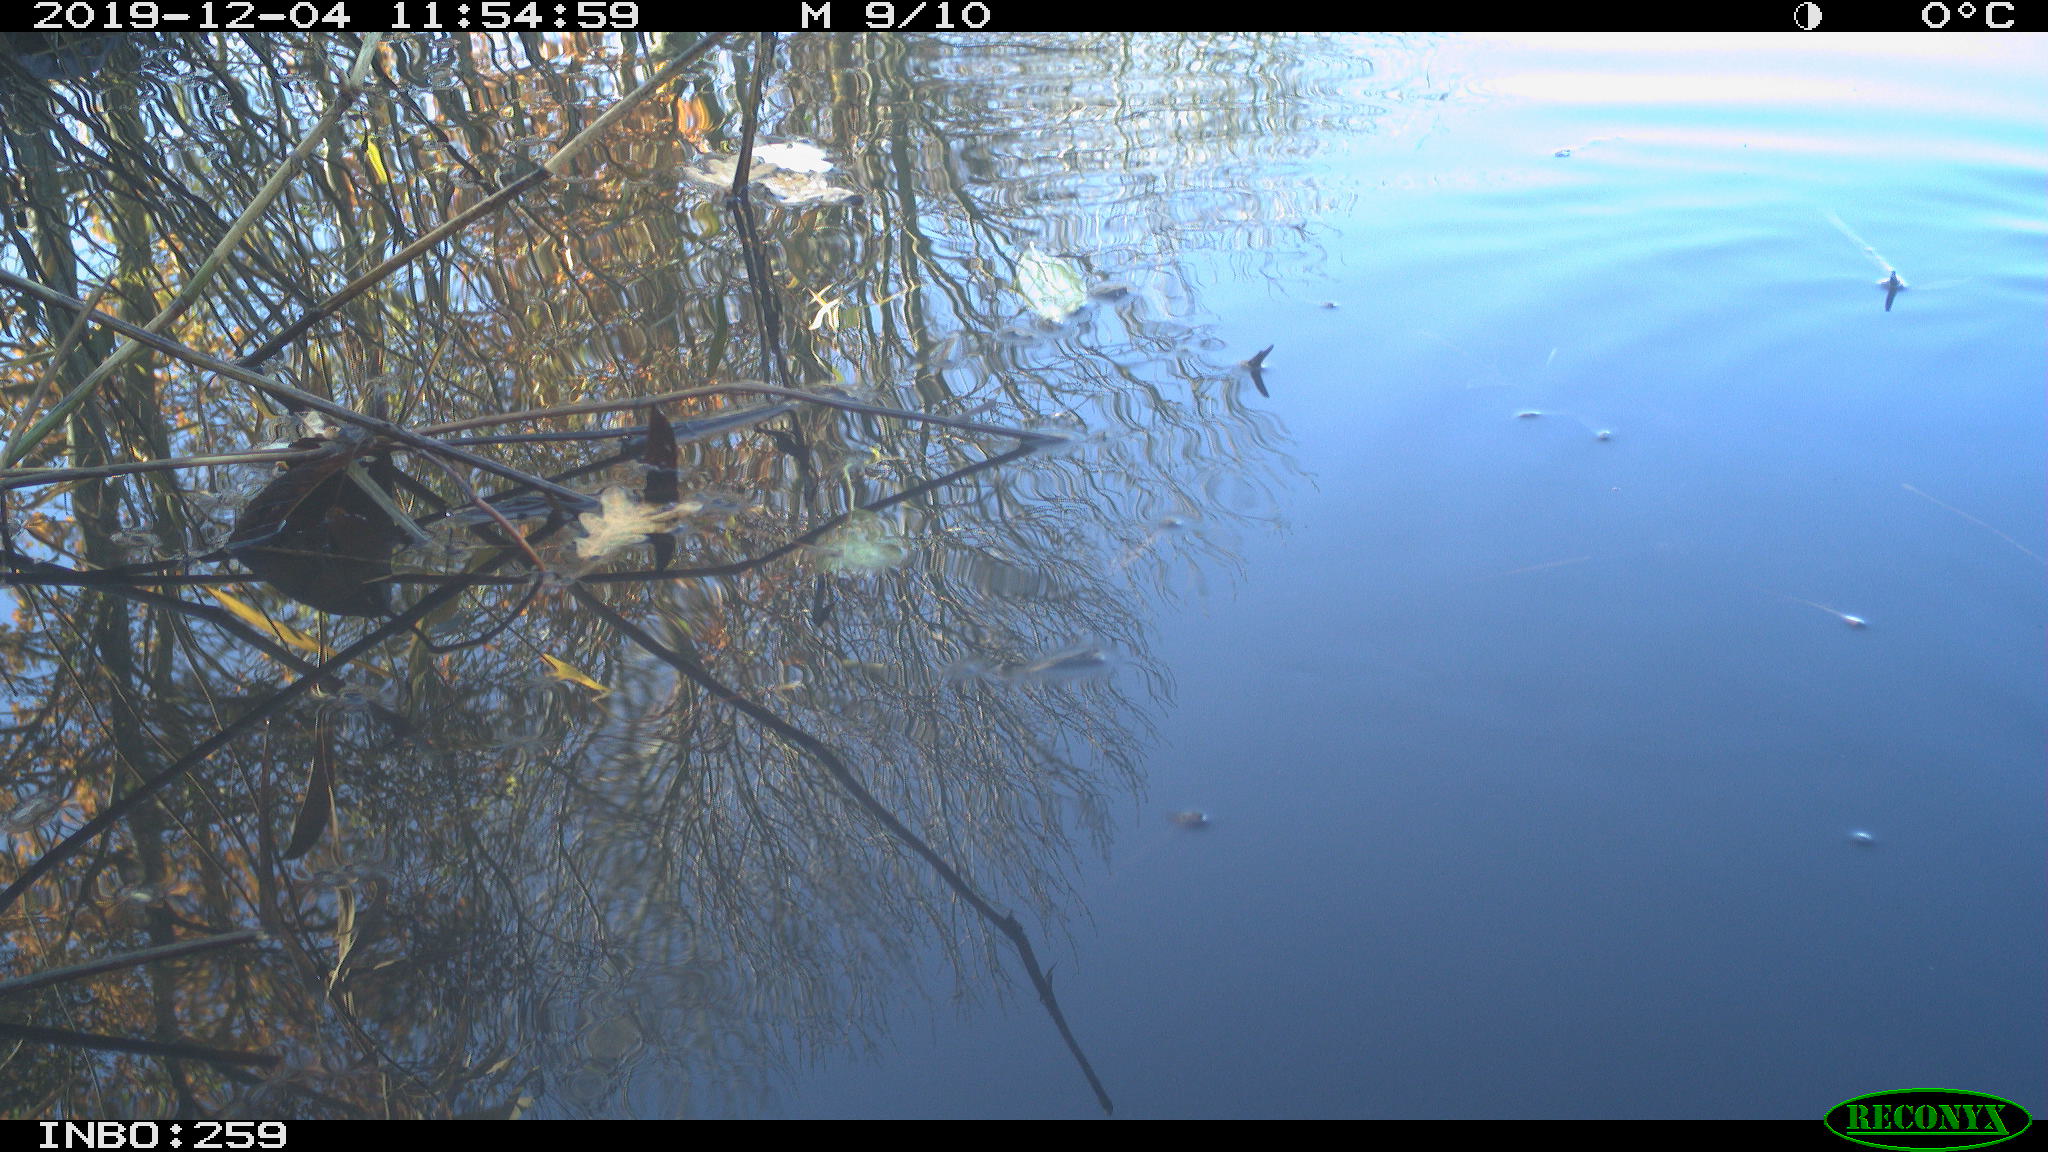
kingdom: Animalia
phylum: Chordata
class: Aves
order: Gruiformes
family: Rallidae
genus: Gallinula
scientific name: Gallinula chloropus
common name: Common moorhen
